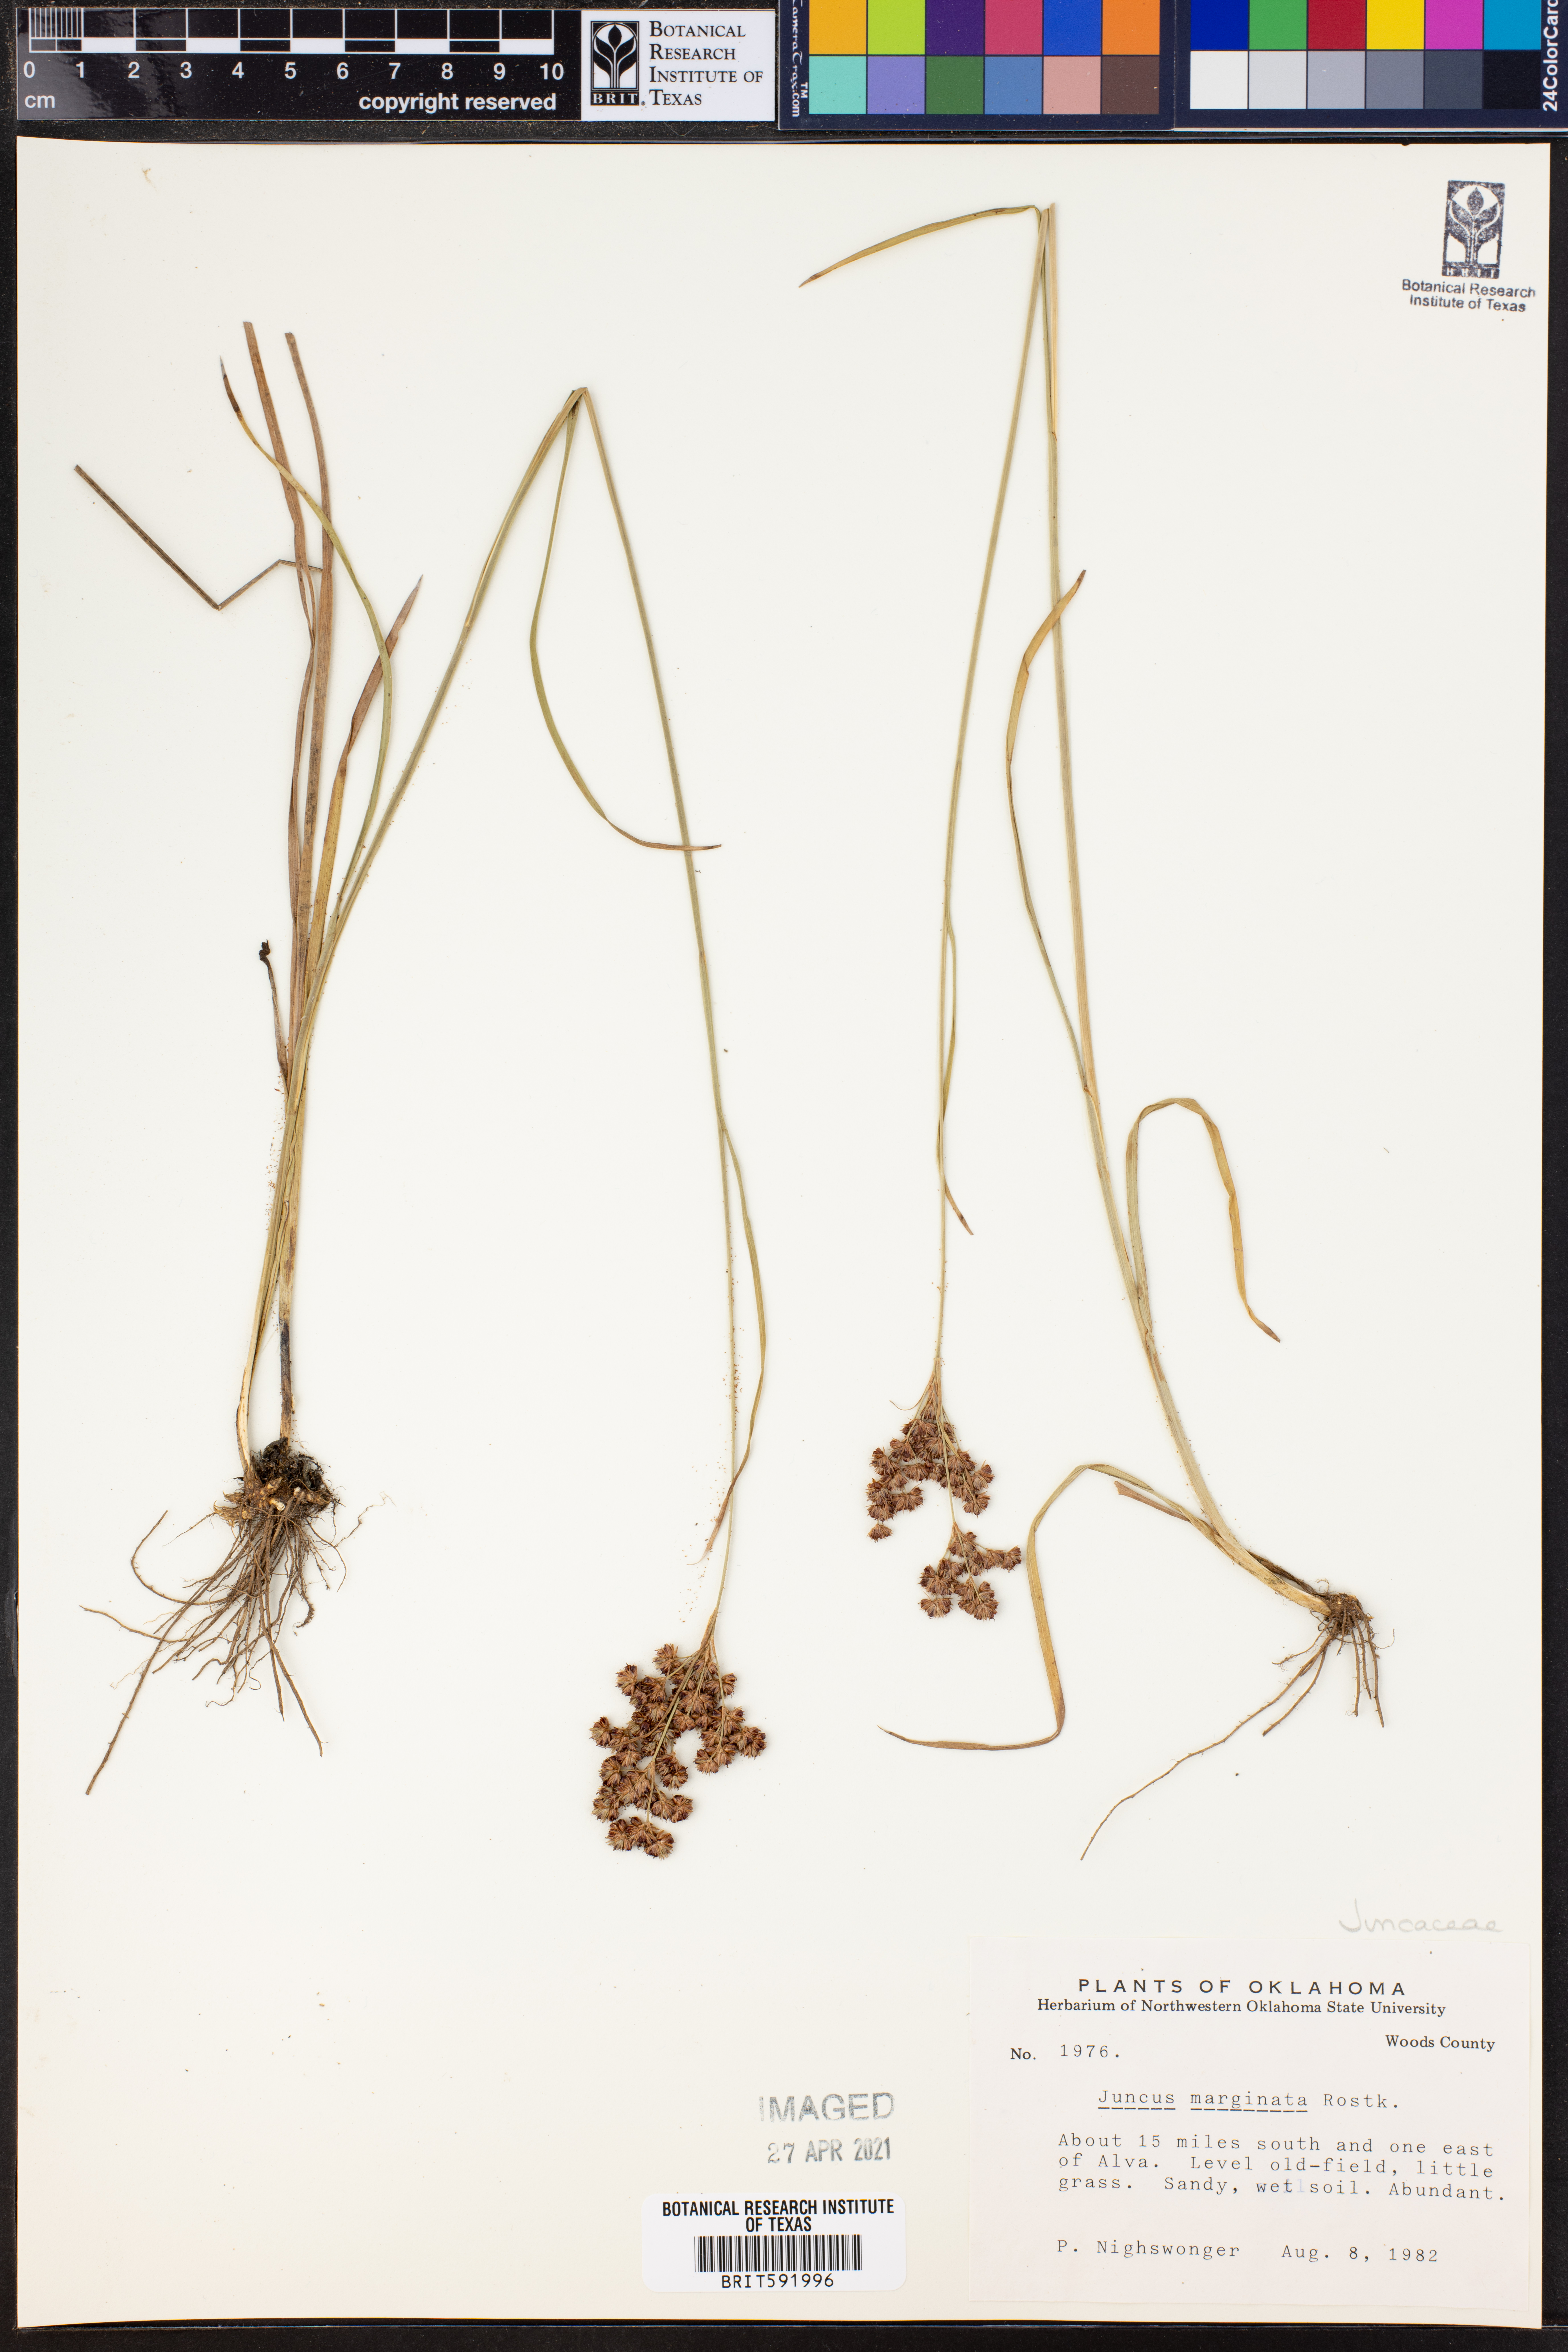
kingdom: Plantae
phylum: Tracheophyta
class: Liliopsida
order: Poales
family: Juncaceae
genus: Juncus
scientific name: Juncus marginatus
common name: Grass-leaf rush
